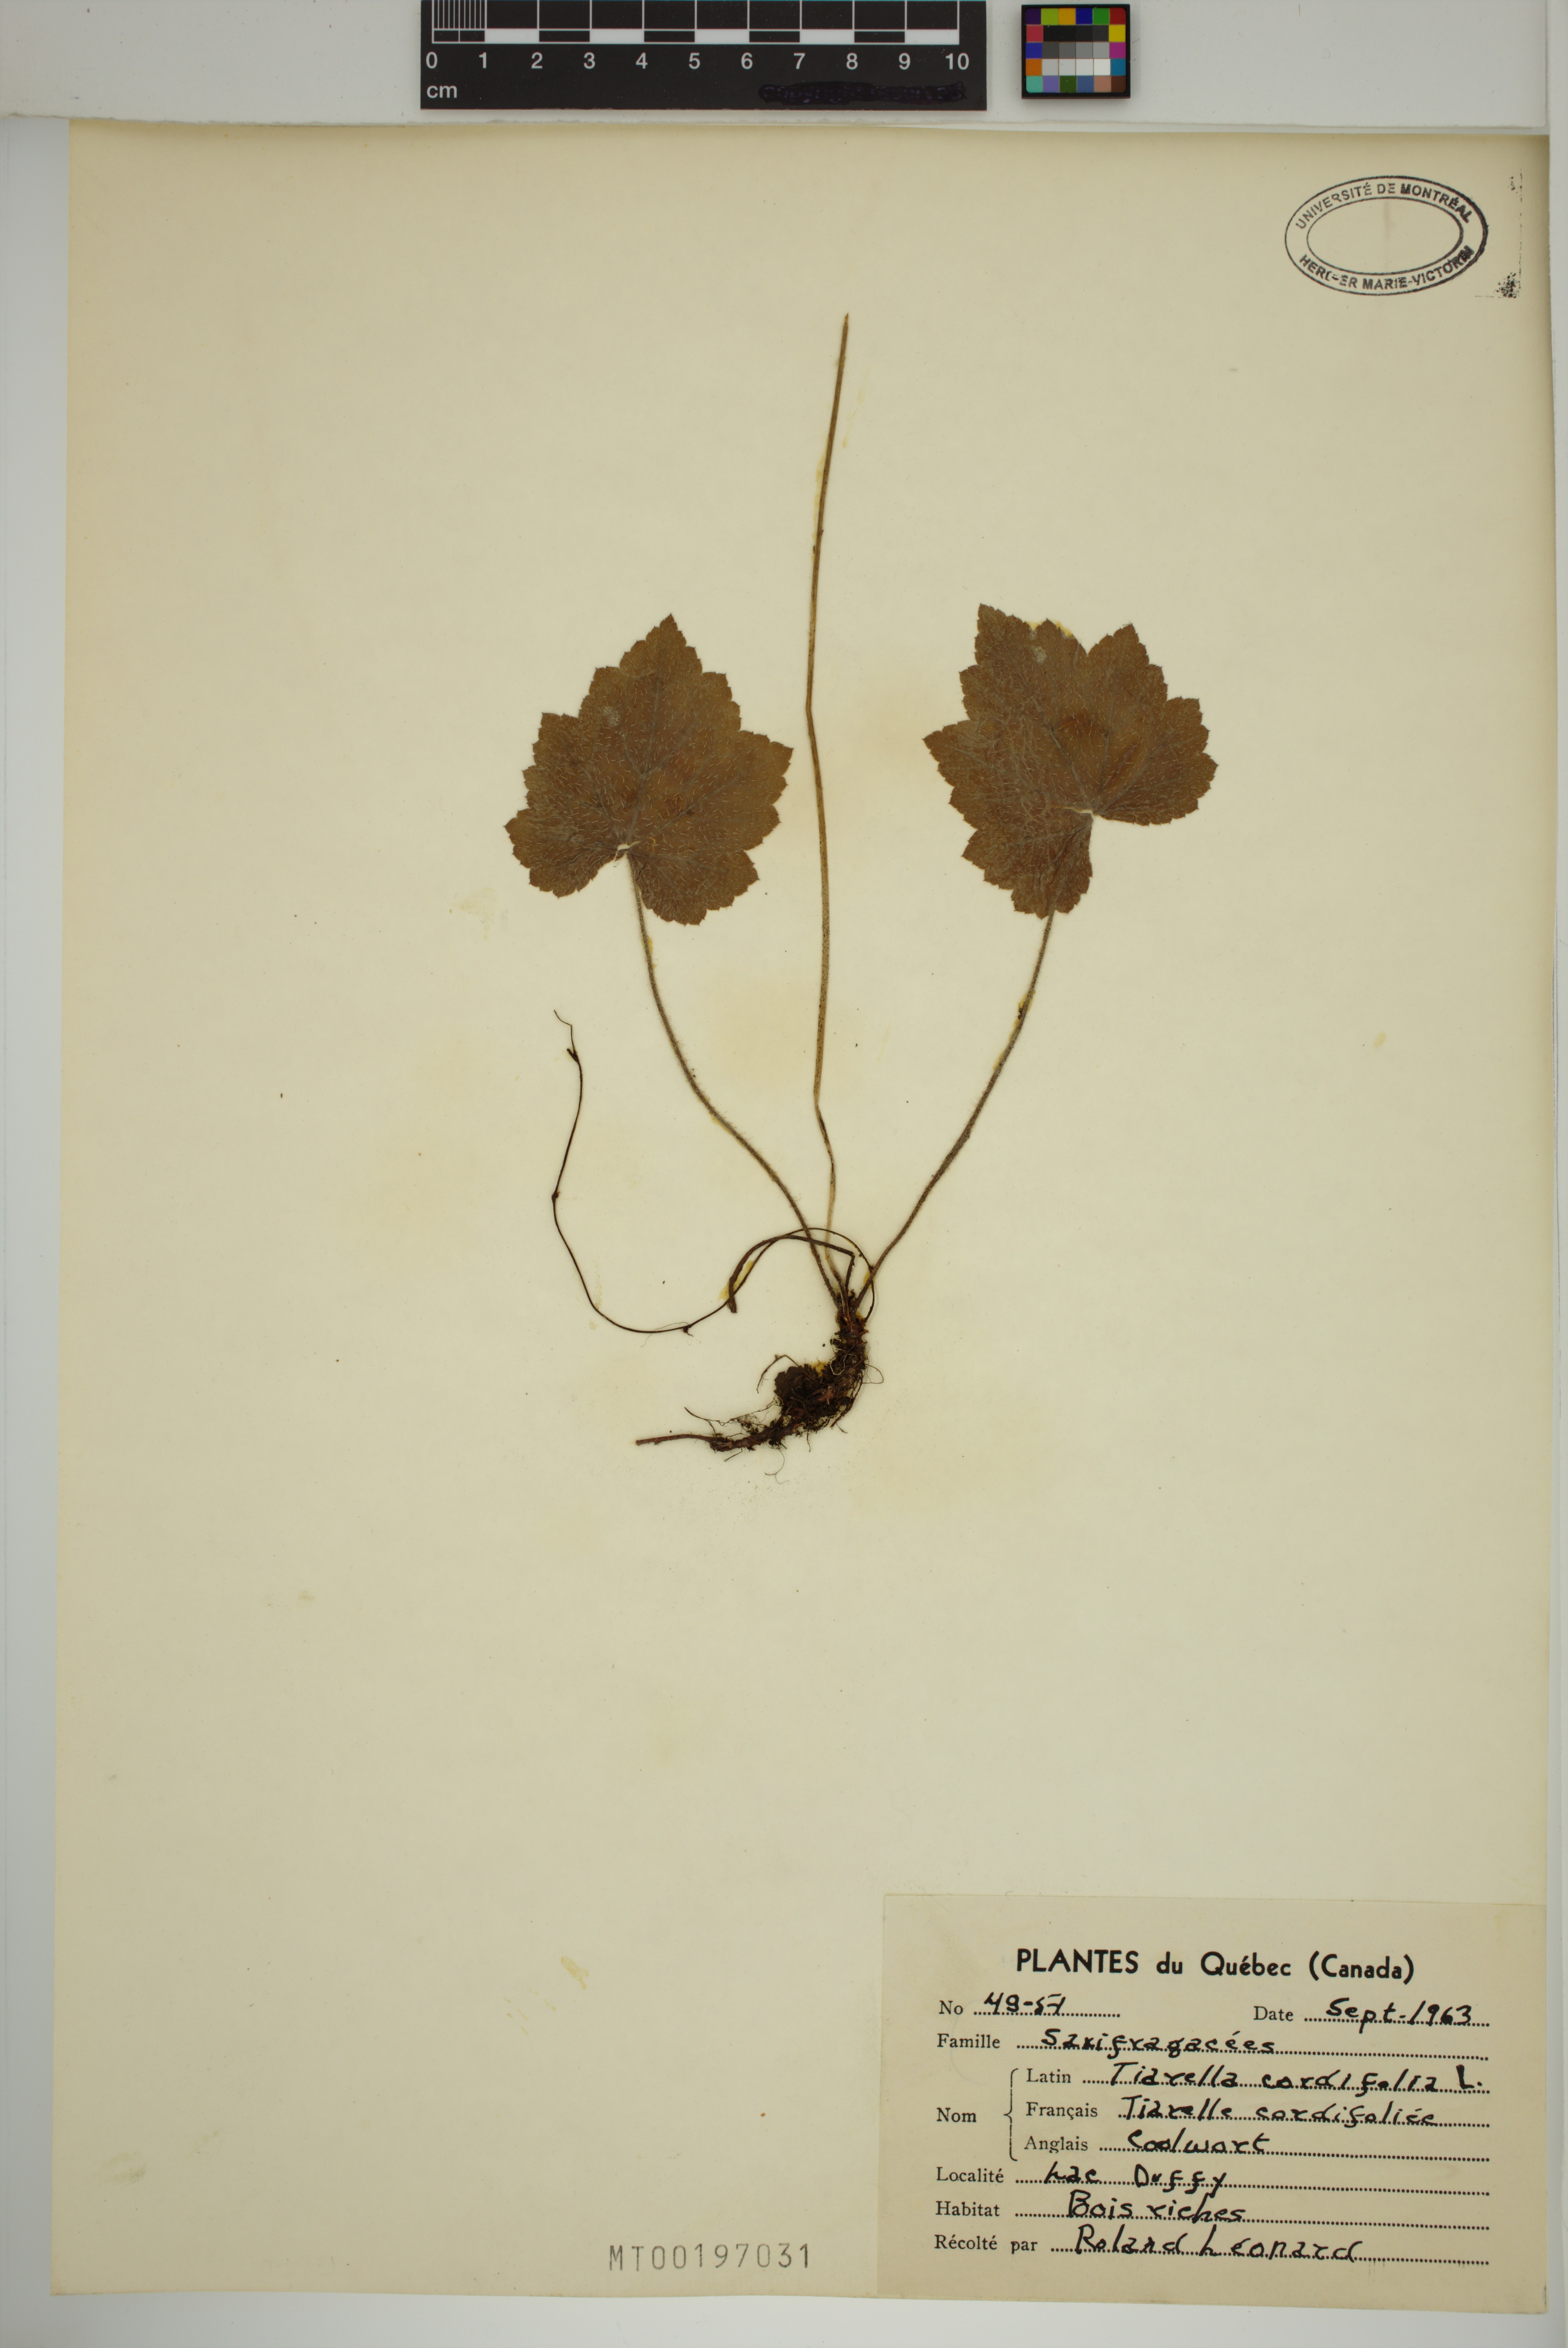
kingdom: Plantae
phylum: Tracheophyta
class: Magnoliopsida
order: Saxifragales
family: Saxifragaceae
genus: Tiarella
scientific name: Tiarella cordifolia
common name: Foamflower
